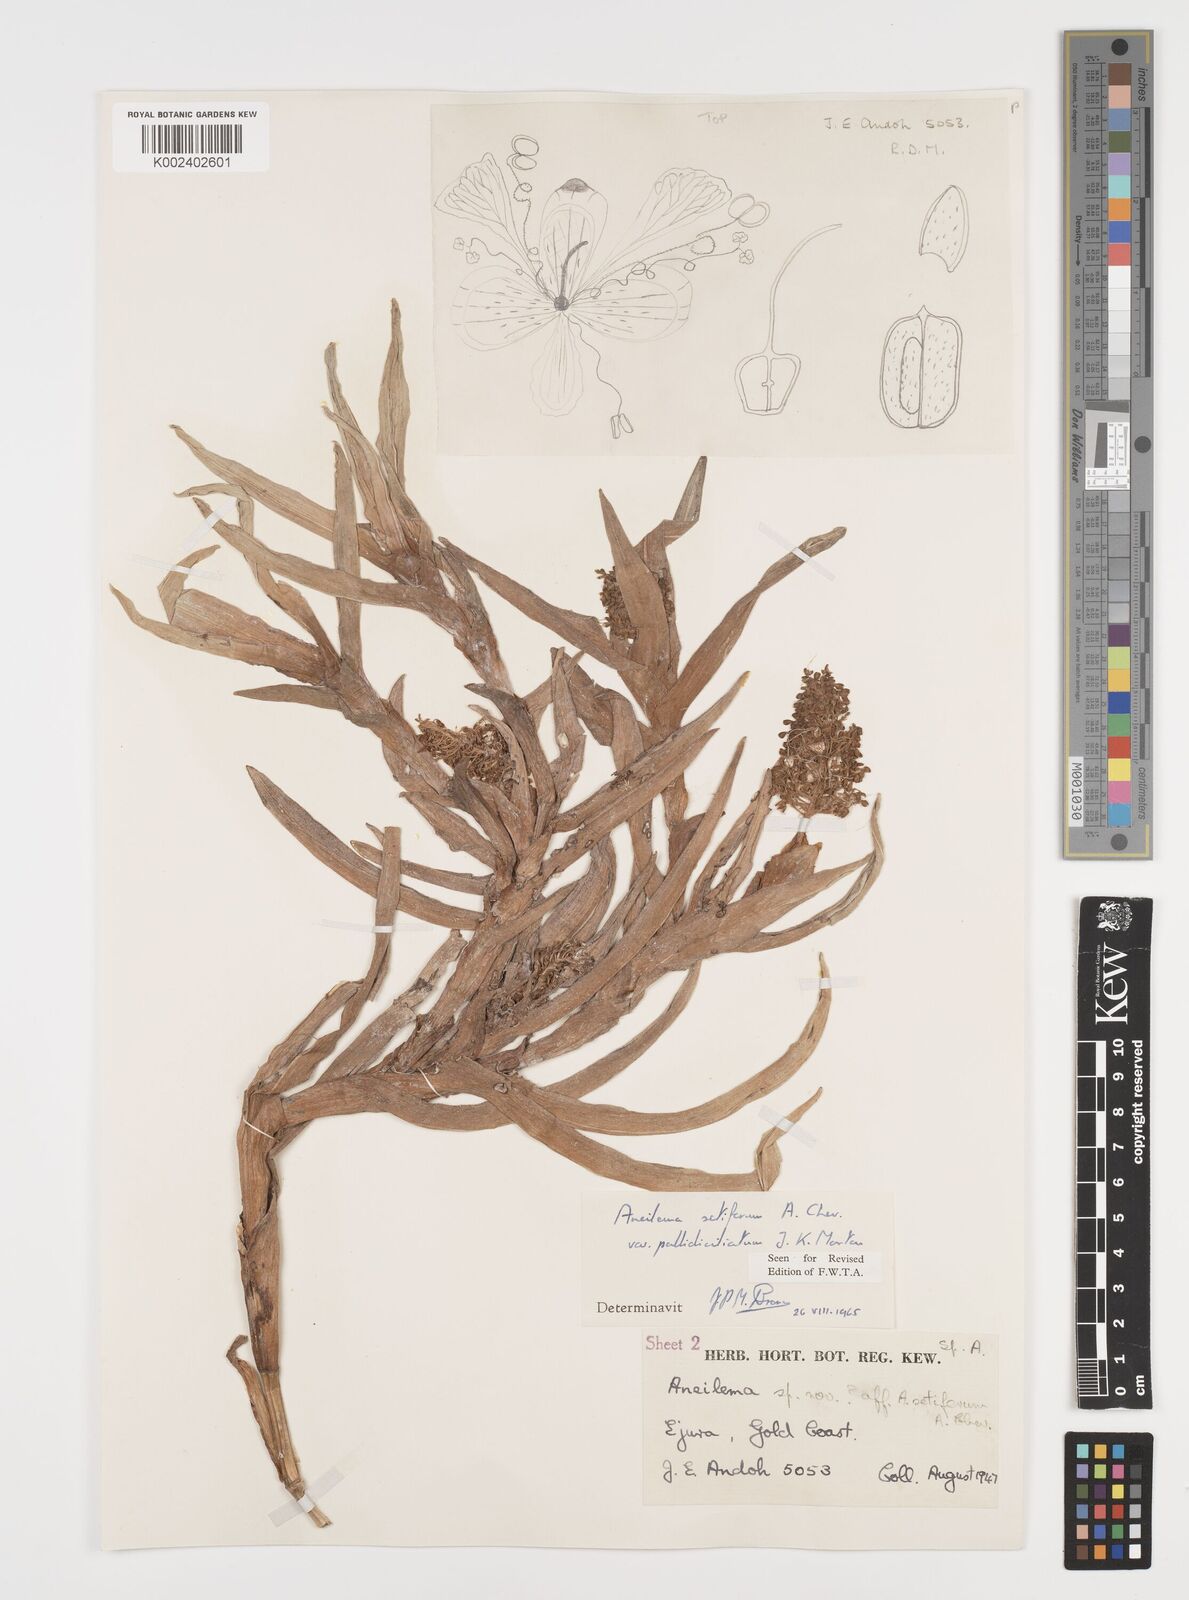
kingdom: Plantae
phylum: Tracheophyta
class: Liliopsida
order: Commelinales
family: Commelinaceae
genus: Aneilema
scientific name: Aneilema setiferum
